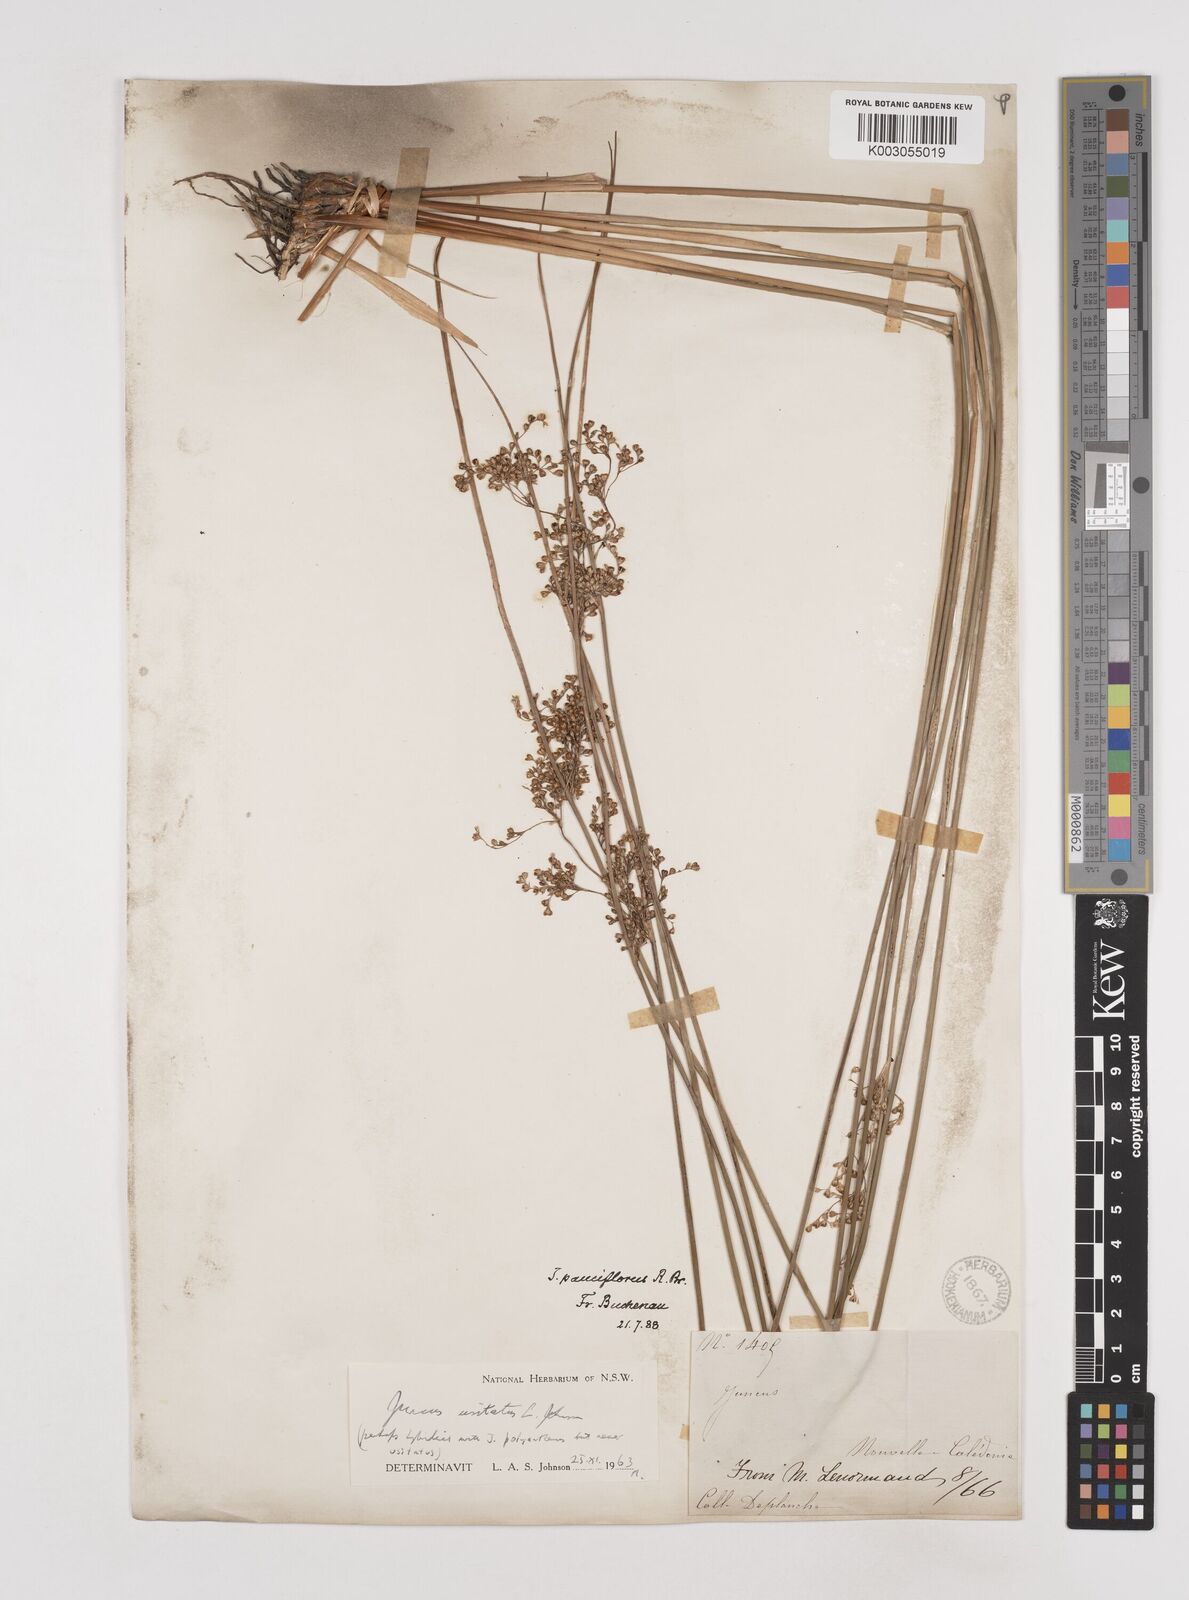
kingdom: Plantae
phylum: Tracheophyta
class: Liliopsida
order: Poales
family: Juncaceae
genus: Juncus
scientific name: Juncus usitatus
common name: Rush
